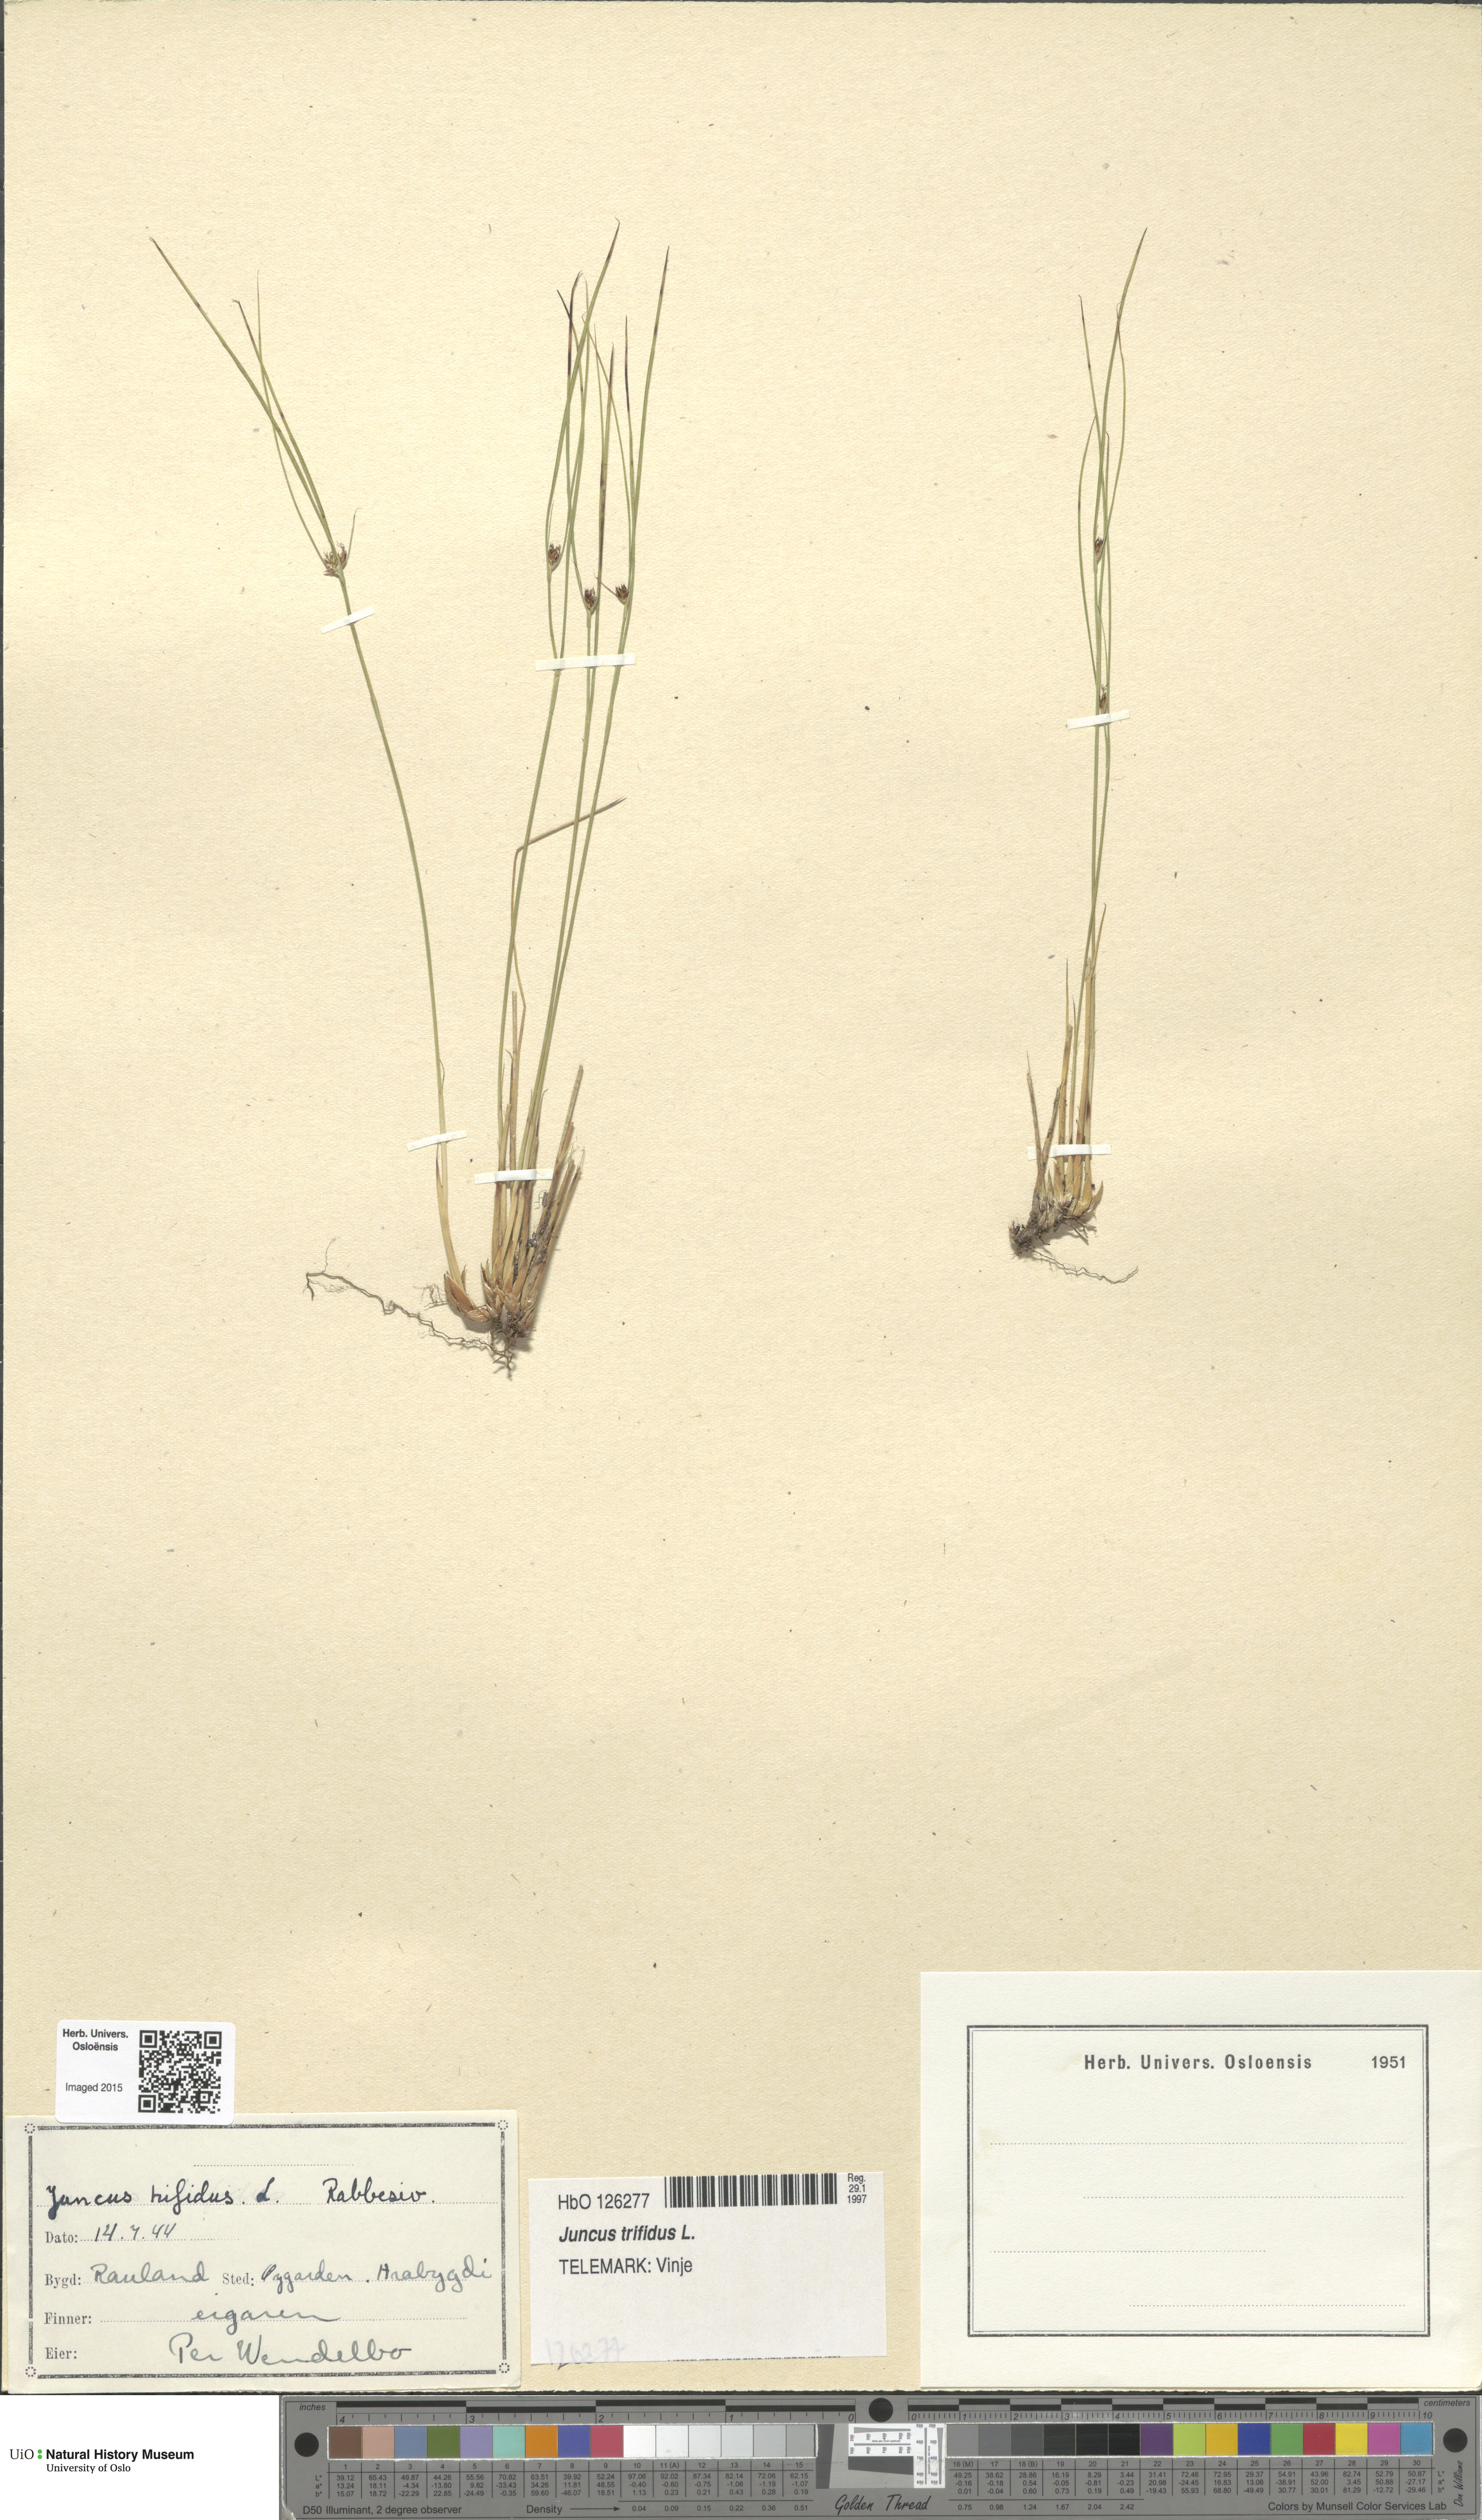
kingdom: Plantae
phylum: Tracheophyta
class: Liliopsida
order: Poales
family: Juncaceae
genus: Oreojuncus
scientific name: Oreojuncus trifidus
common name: Highland rush
